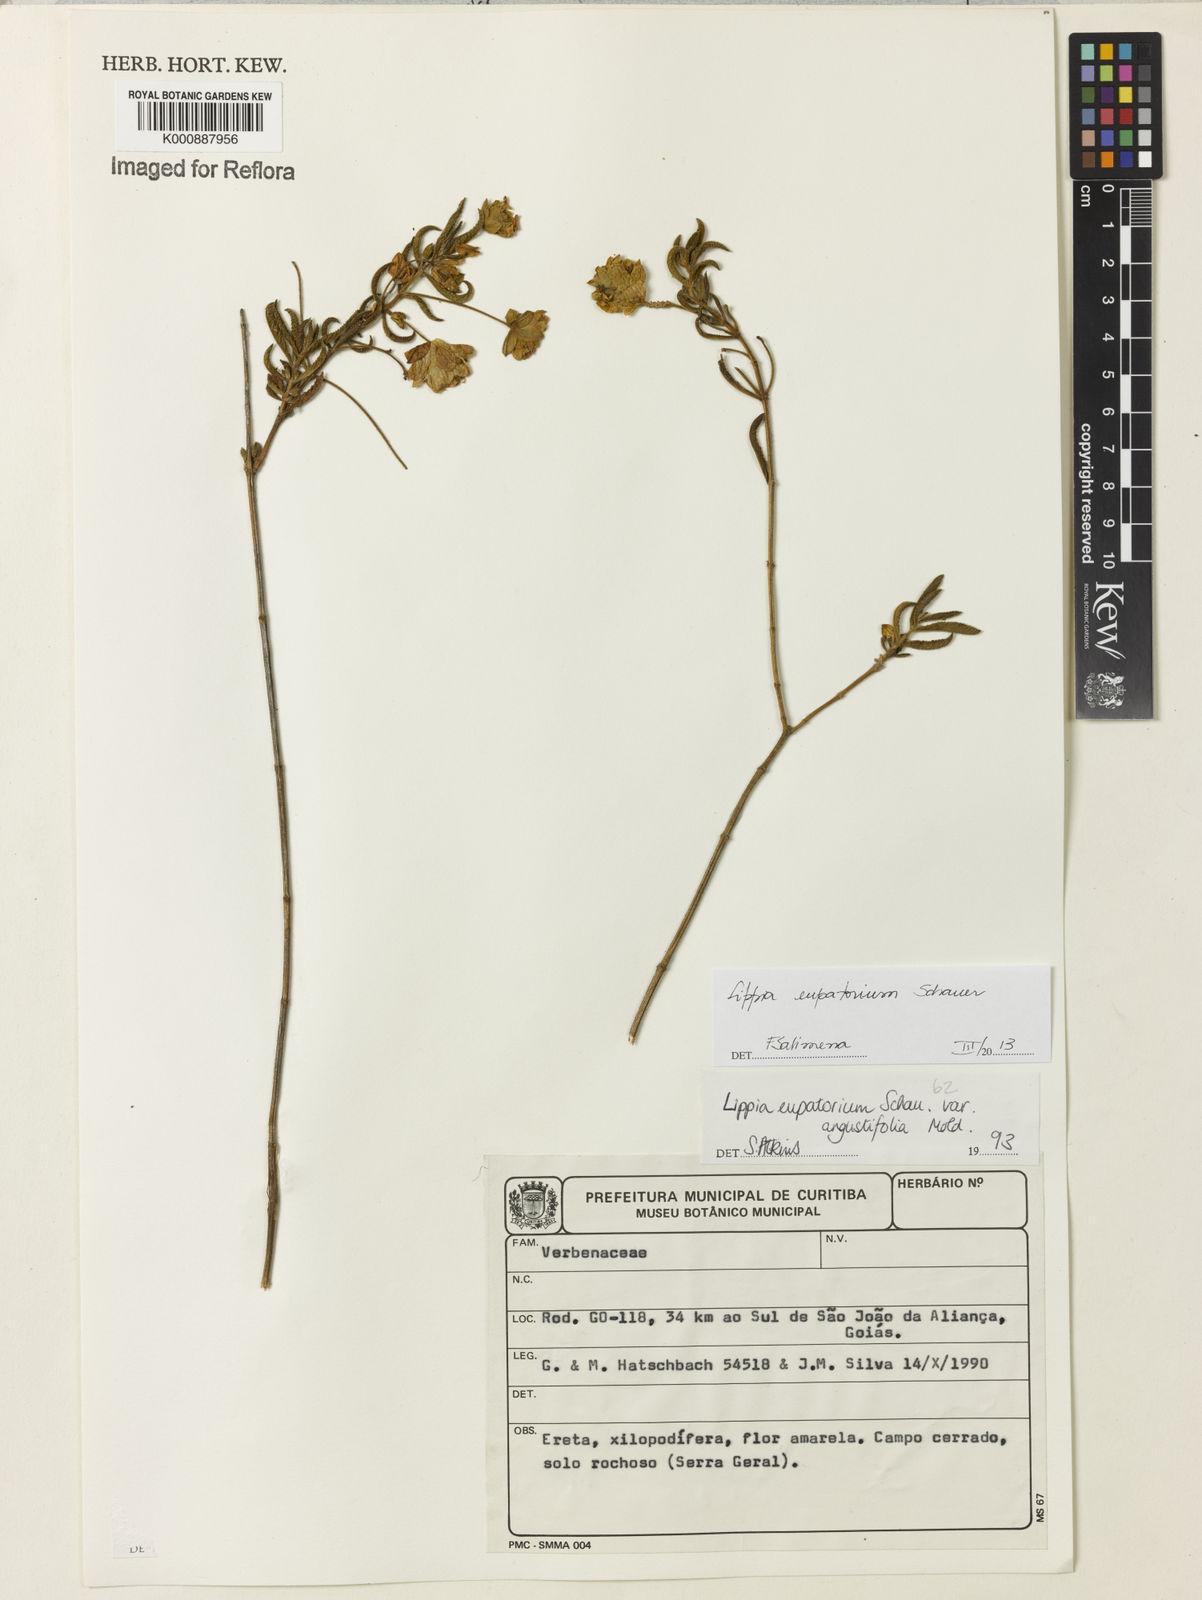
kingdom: Plantae
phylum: Tracheophyta
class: Magnoliopsida
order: Lamiales
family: Verbenaceae
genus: Lippia
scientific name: Lippia eupatorium
